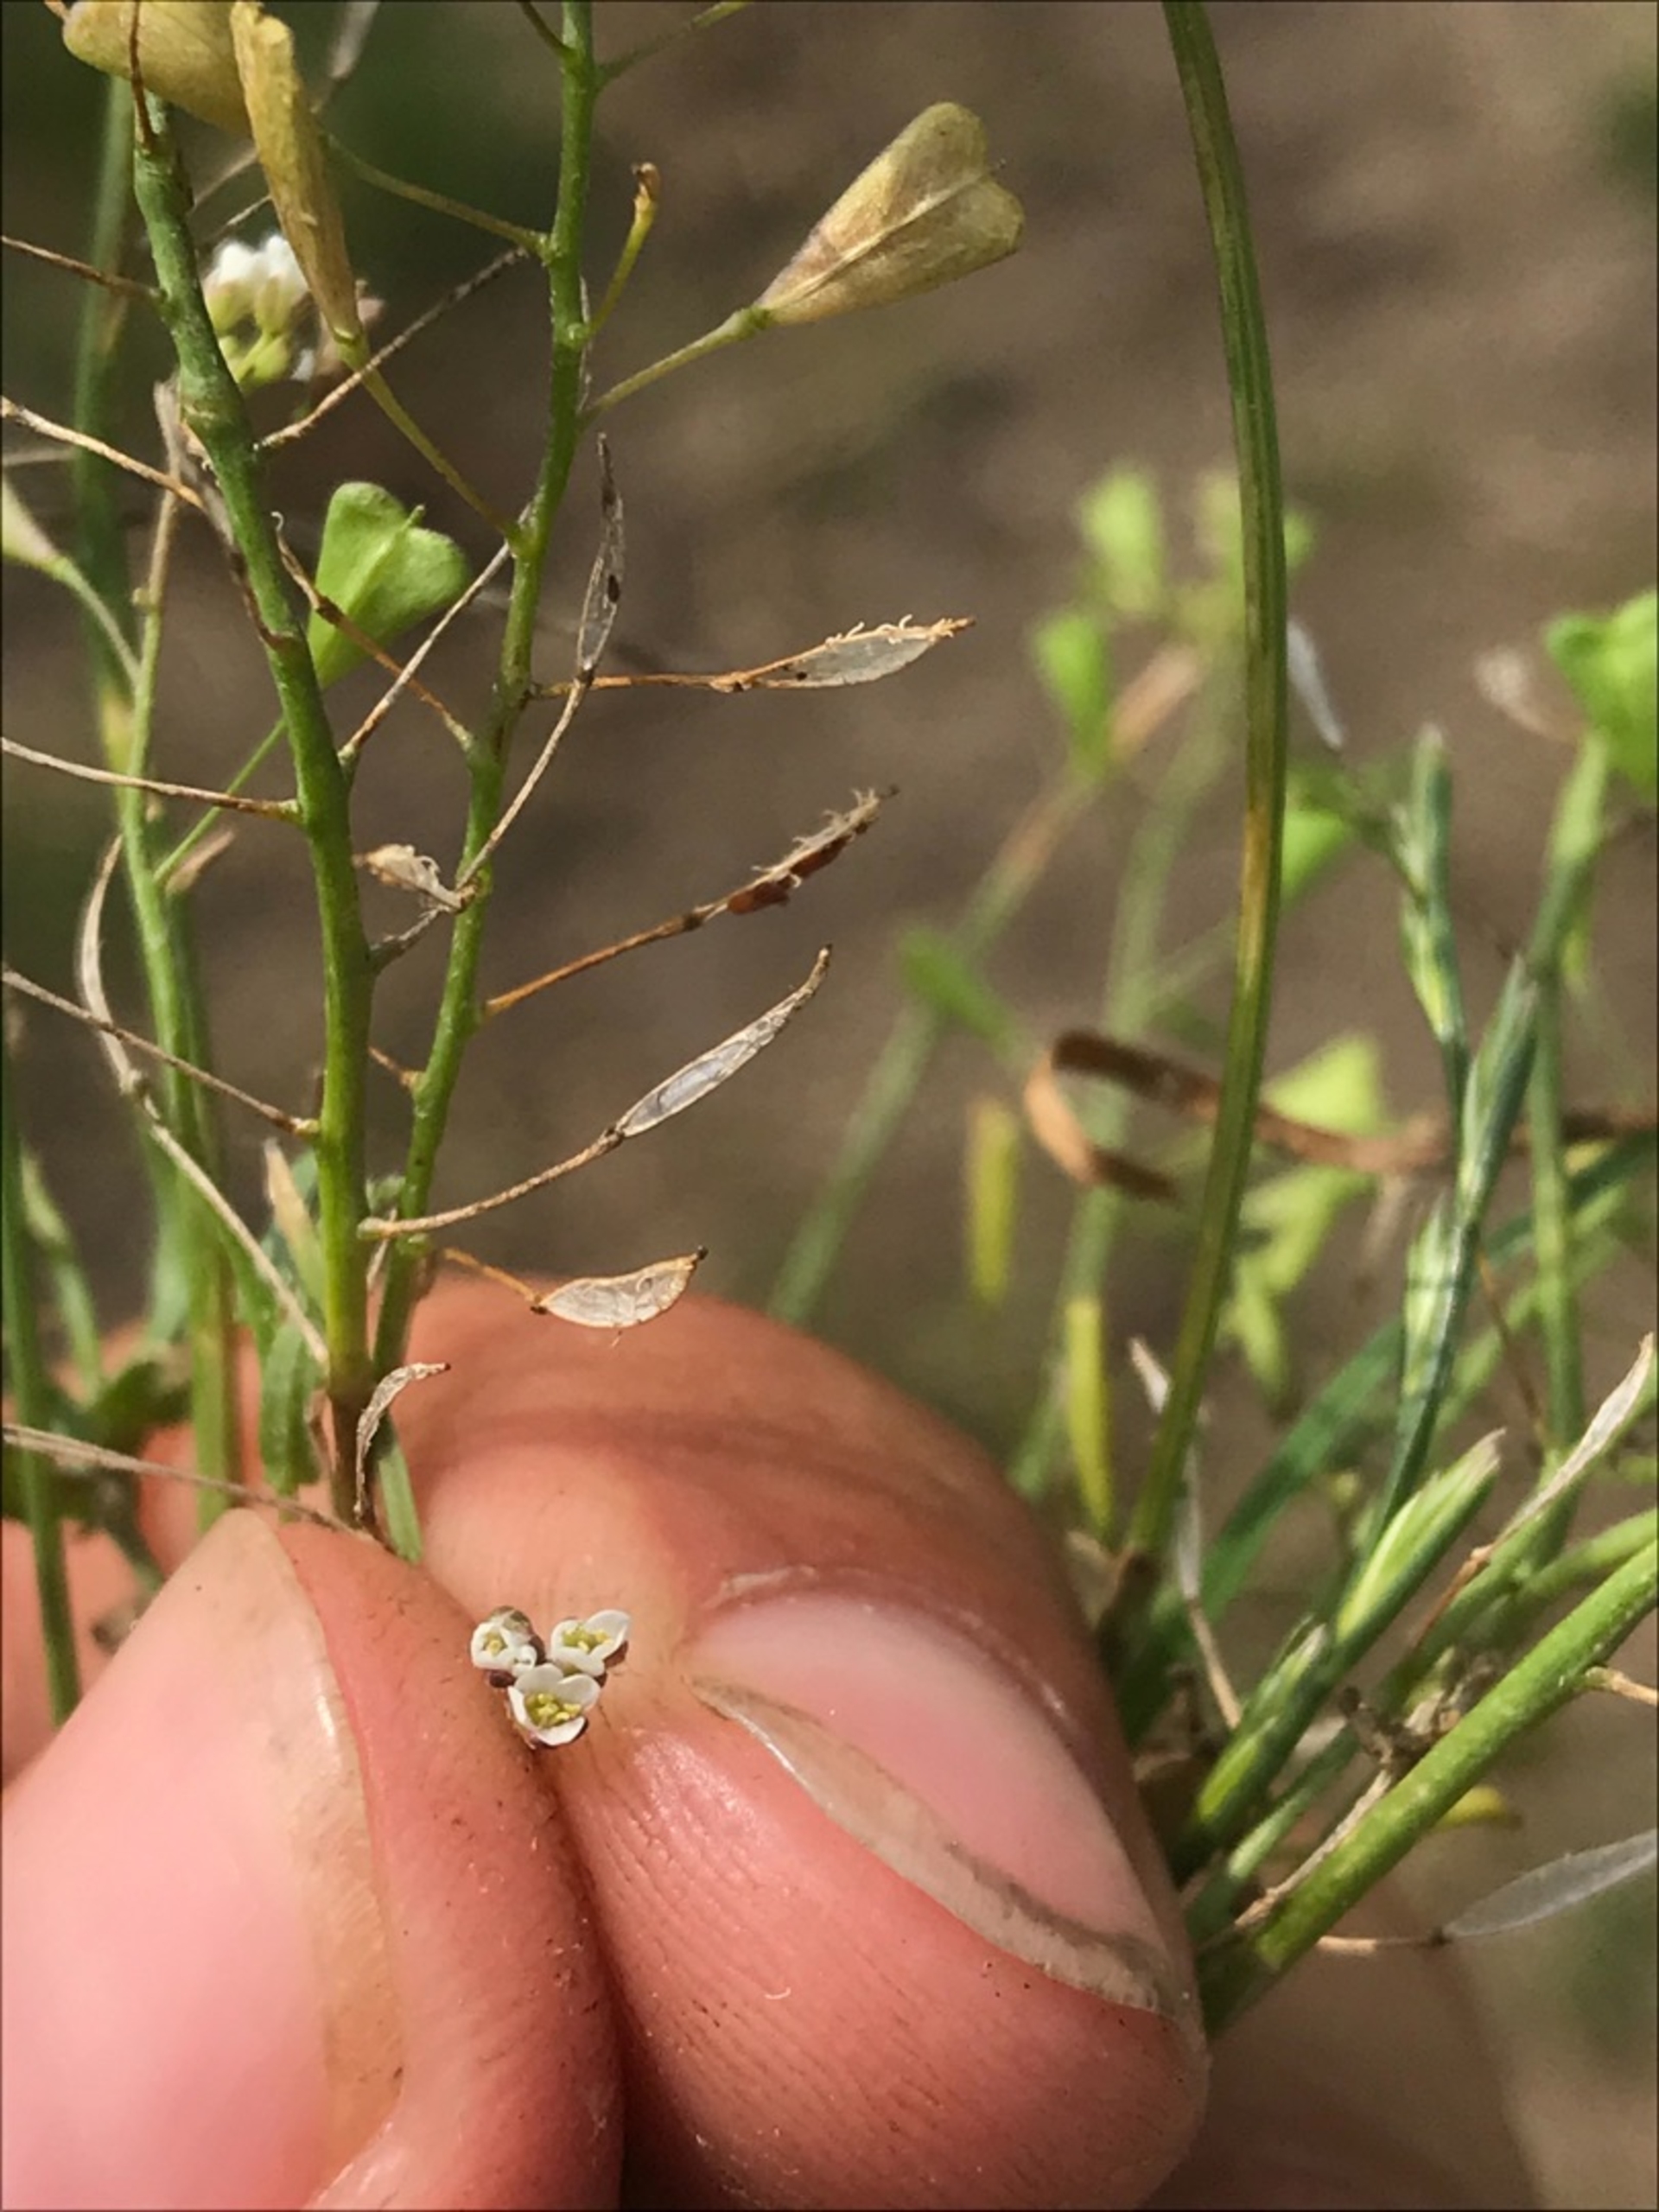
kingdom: Plantae
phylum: Tracheophyta
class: Magnoliopsida
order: Brassicales
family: Brassicaceae
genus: Capsella
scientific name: Capsella bursa-pastoris
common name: Hyrdetaske
